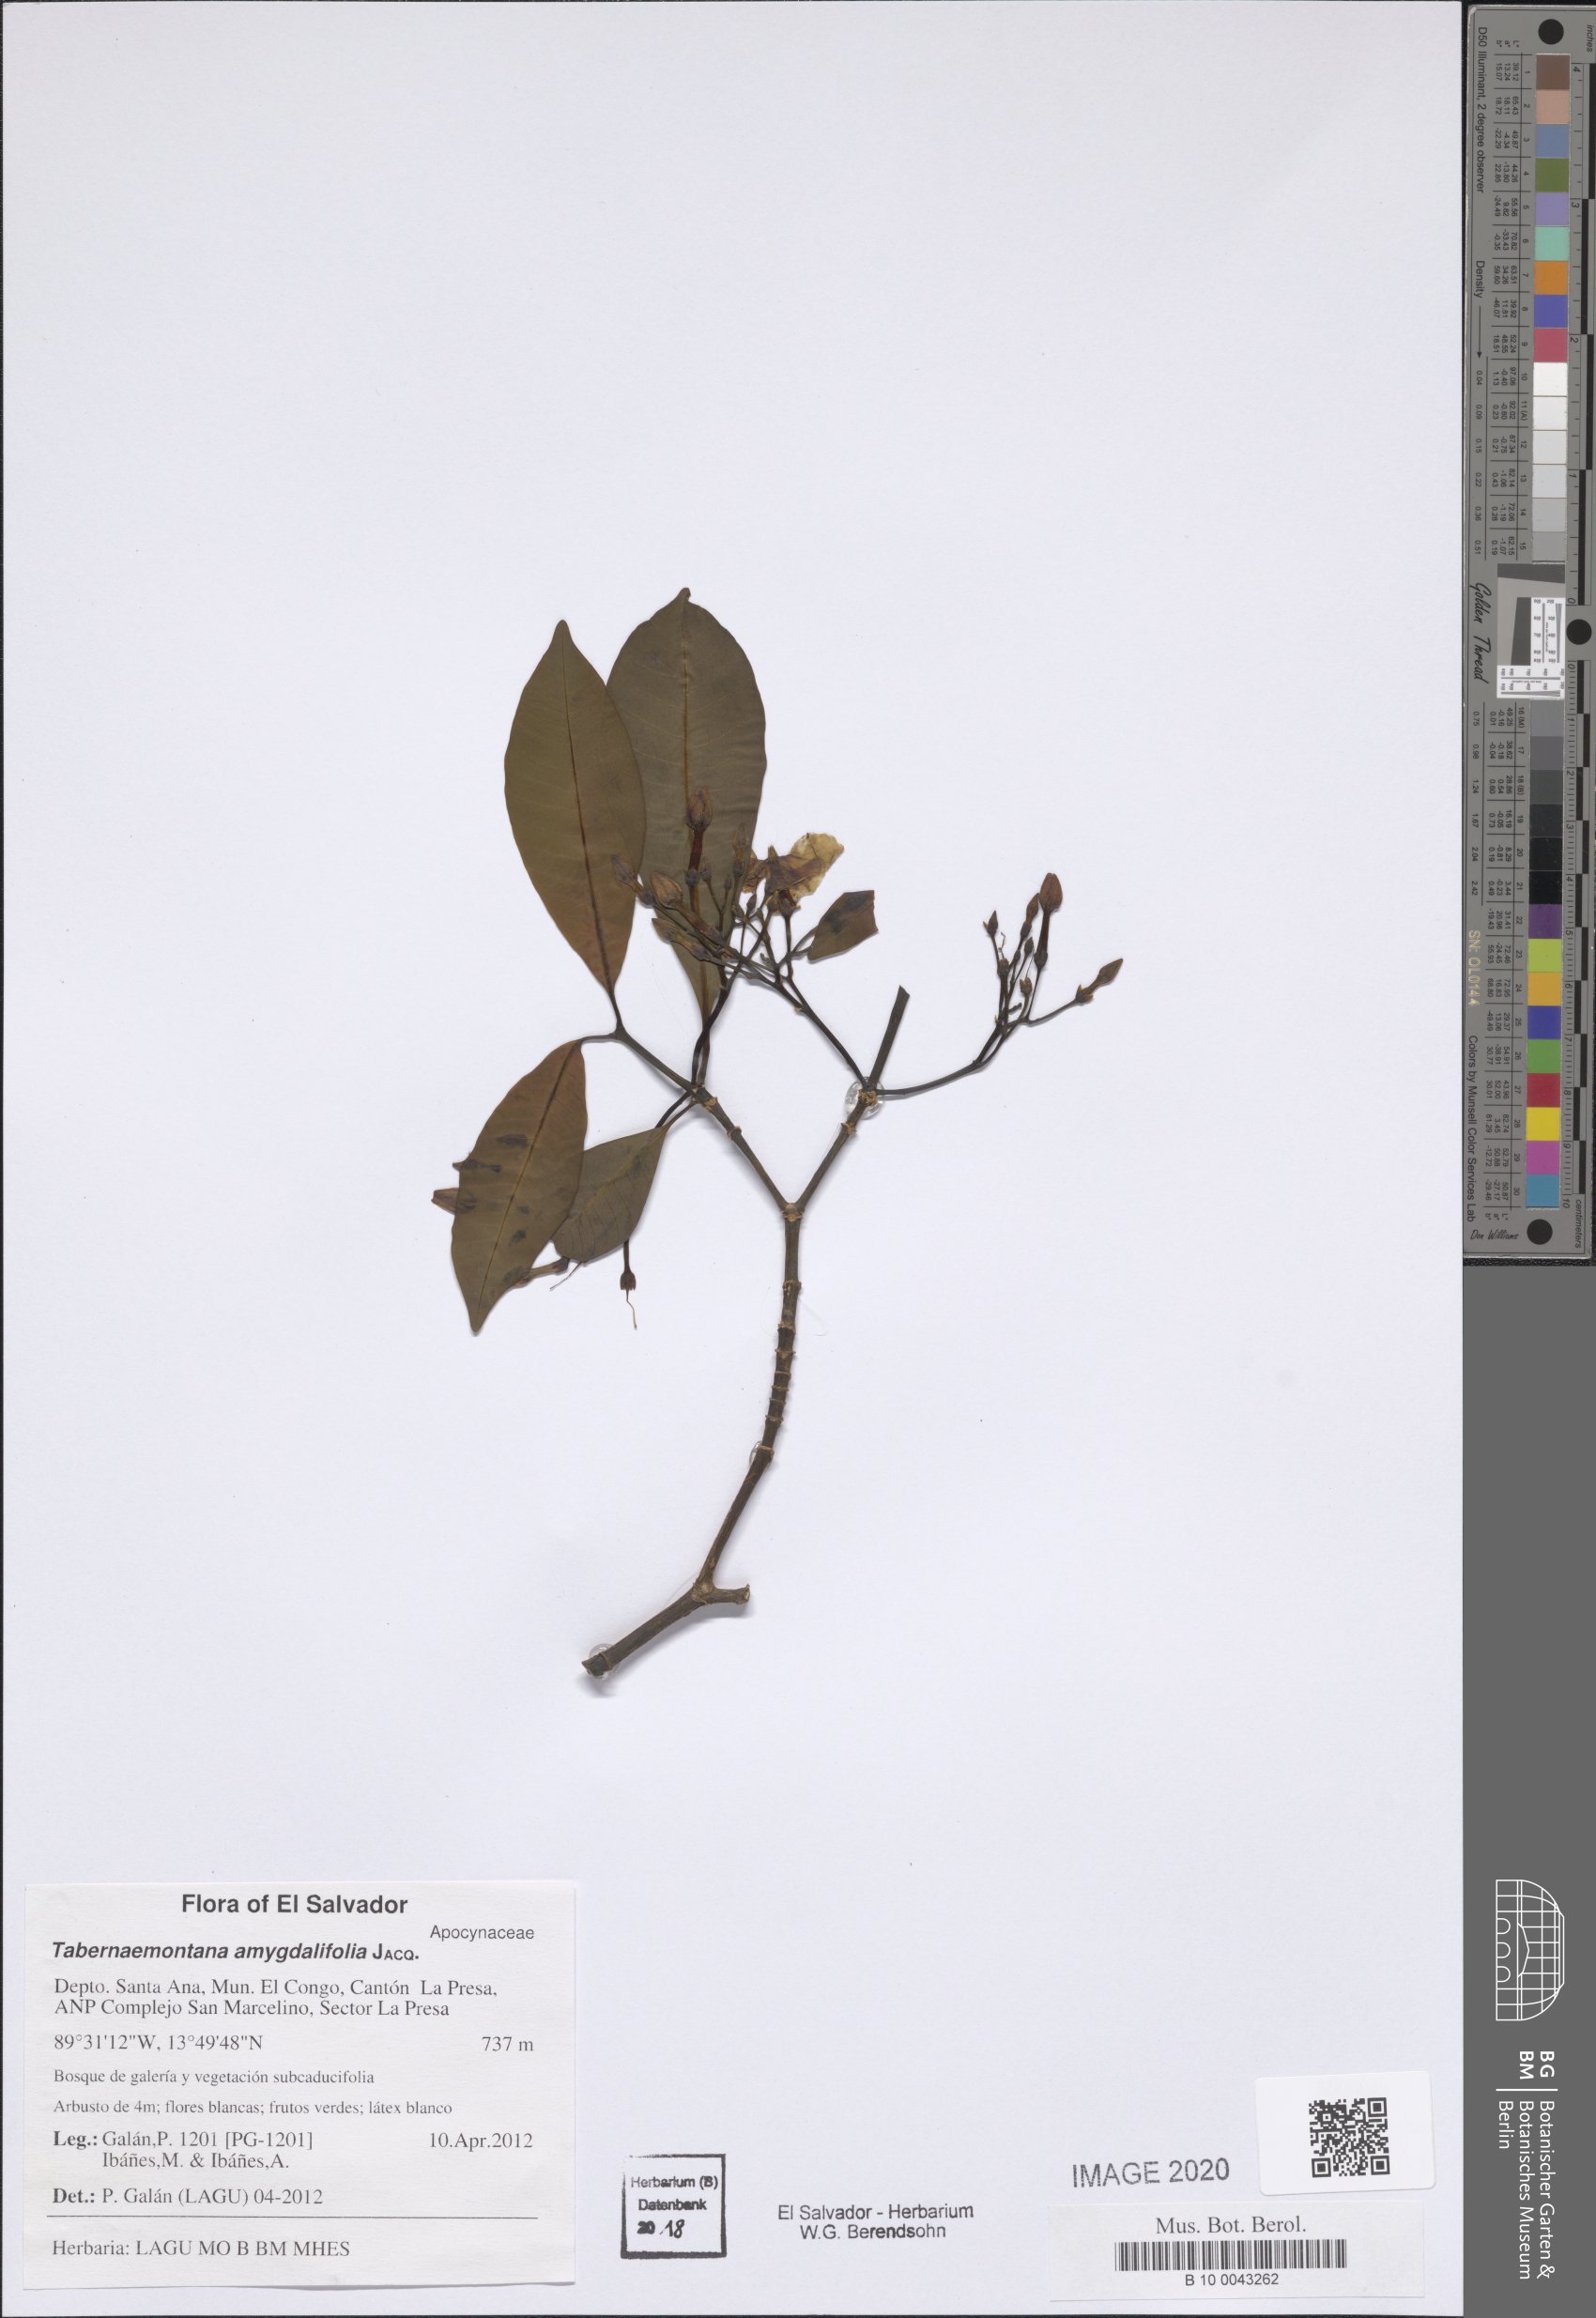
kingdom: Plantae
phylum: Tracheophyta
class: Magnoliopsida
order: Gentianales
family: Apocynaceae
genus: Tabernaemontana
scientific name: Tabernaemontana amygdalifolia
